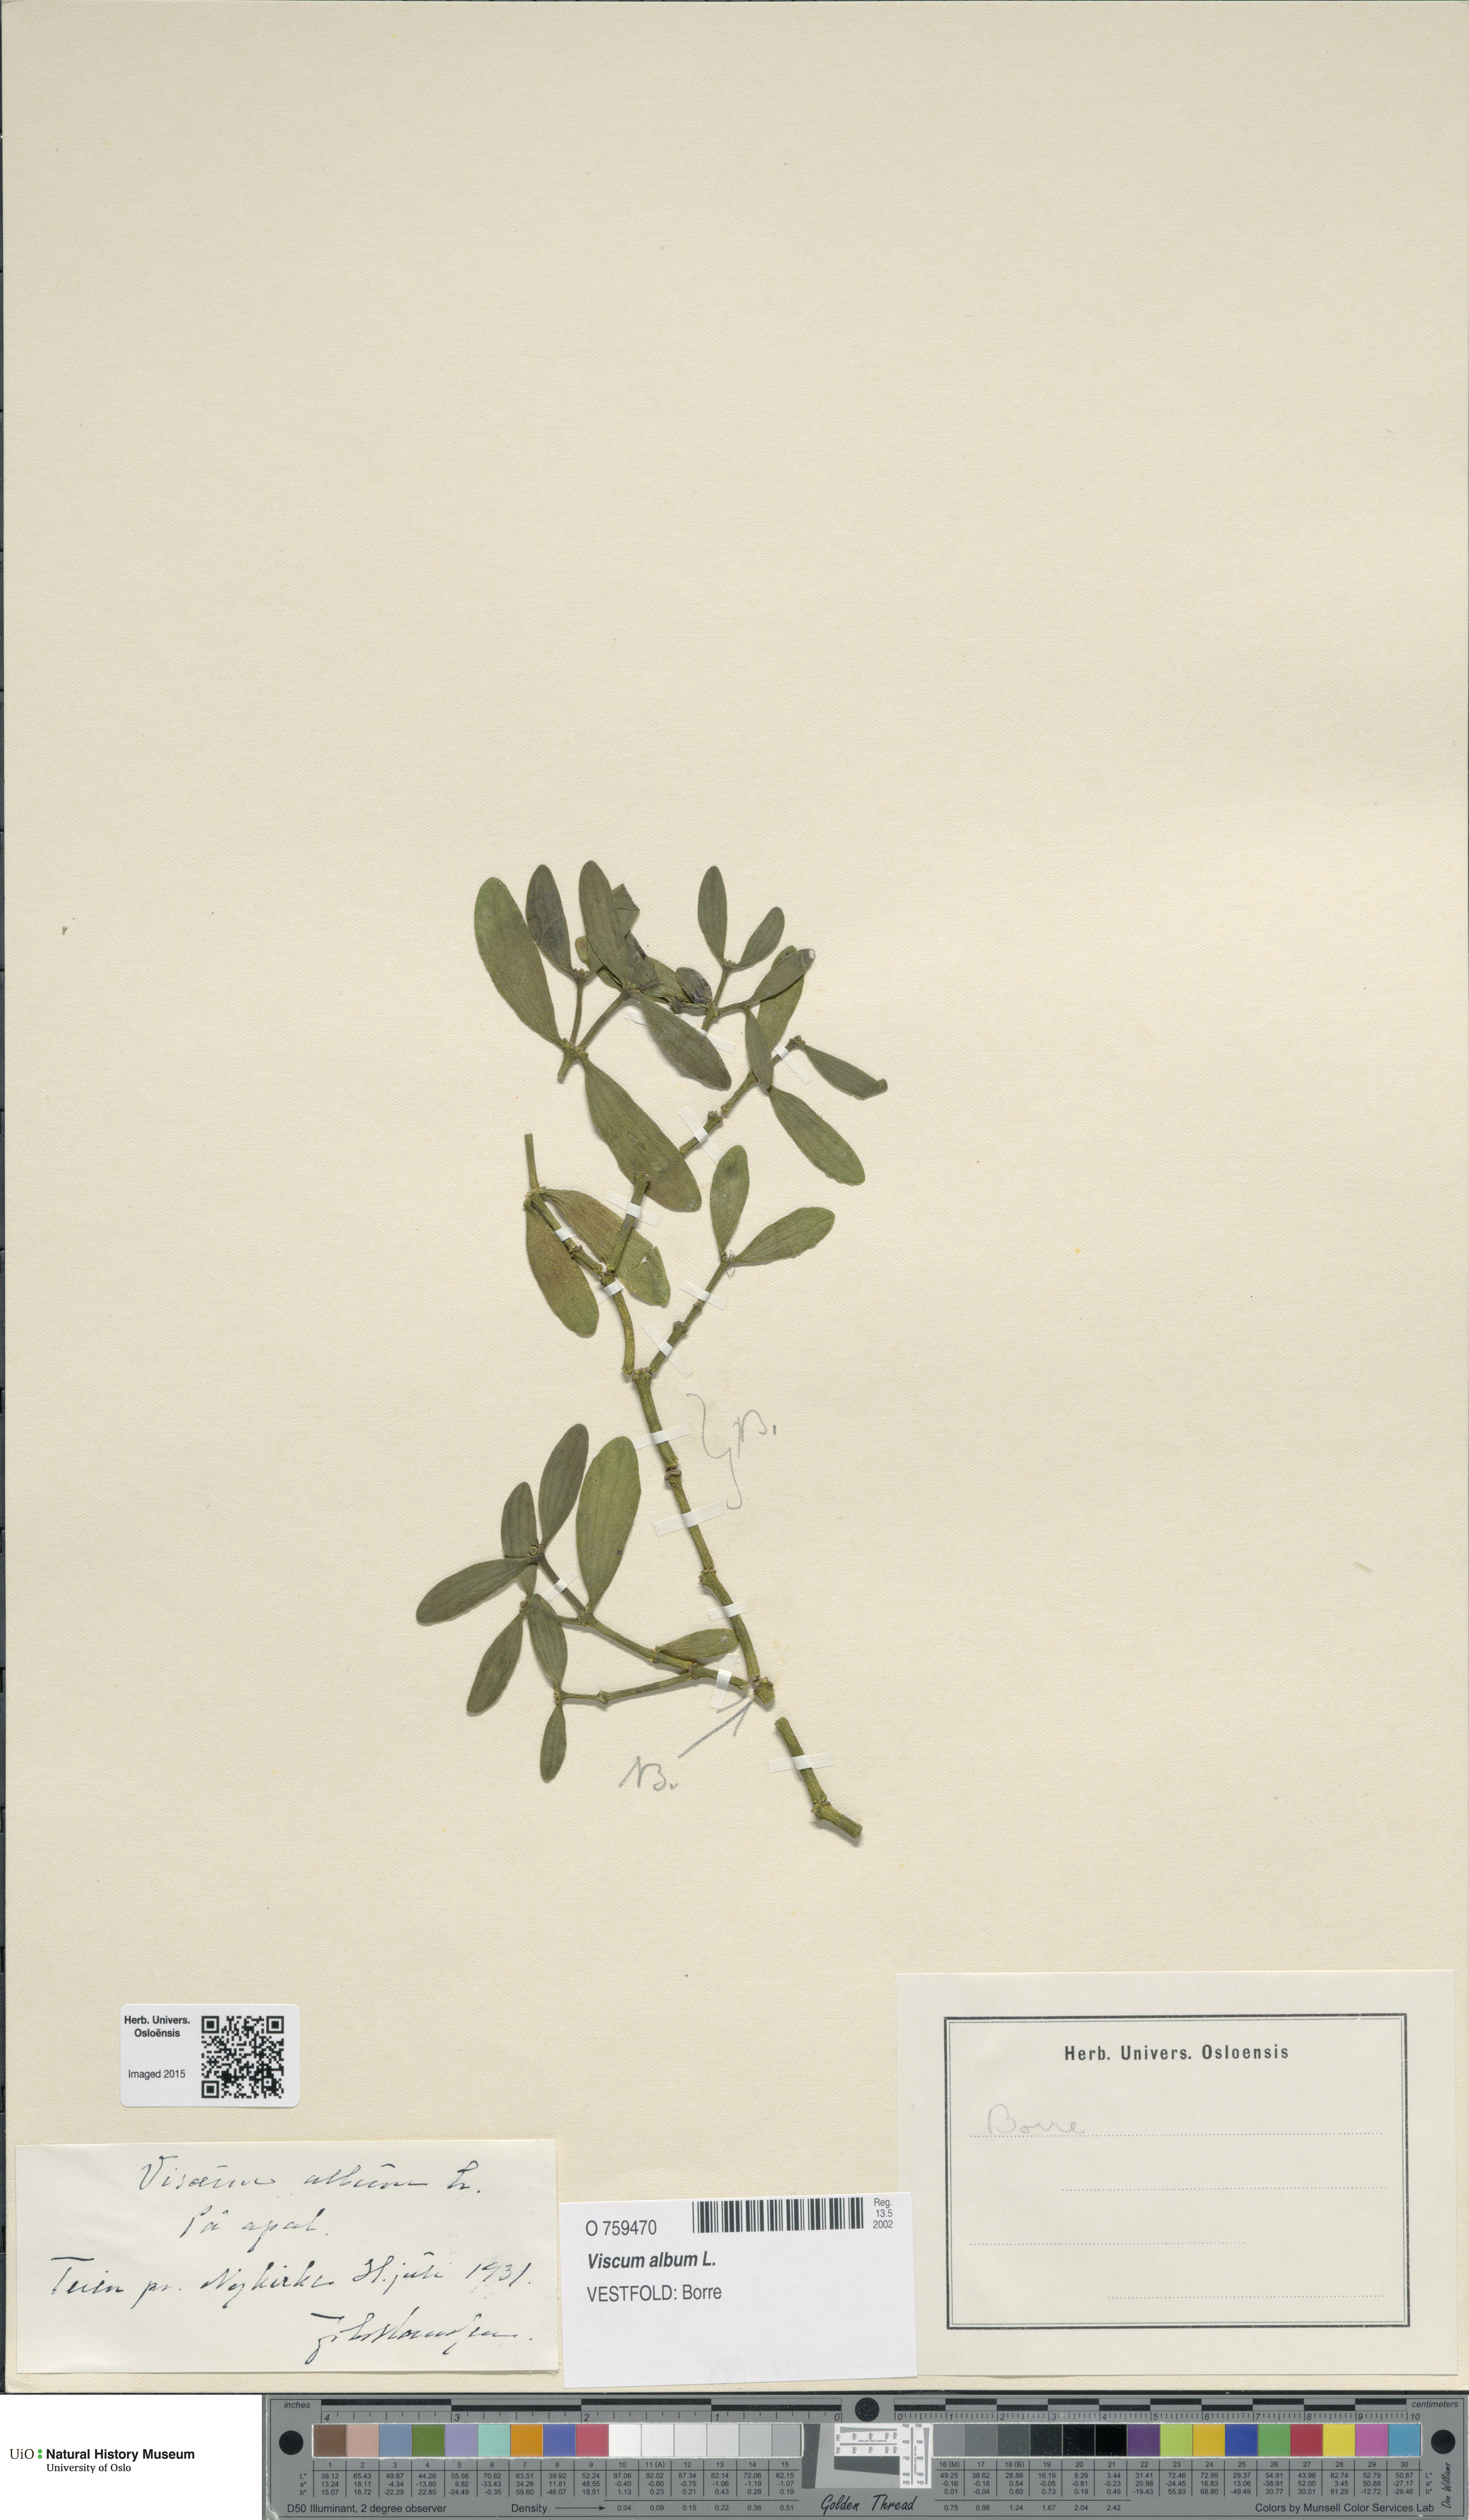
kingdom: Plantae
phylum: Tracheophyta
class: Magnoliopsida
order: Santalales
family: Viscaceae
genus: Viscum
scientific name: Viscum album
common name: Mistletoe
